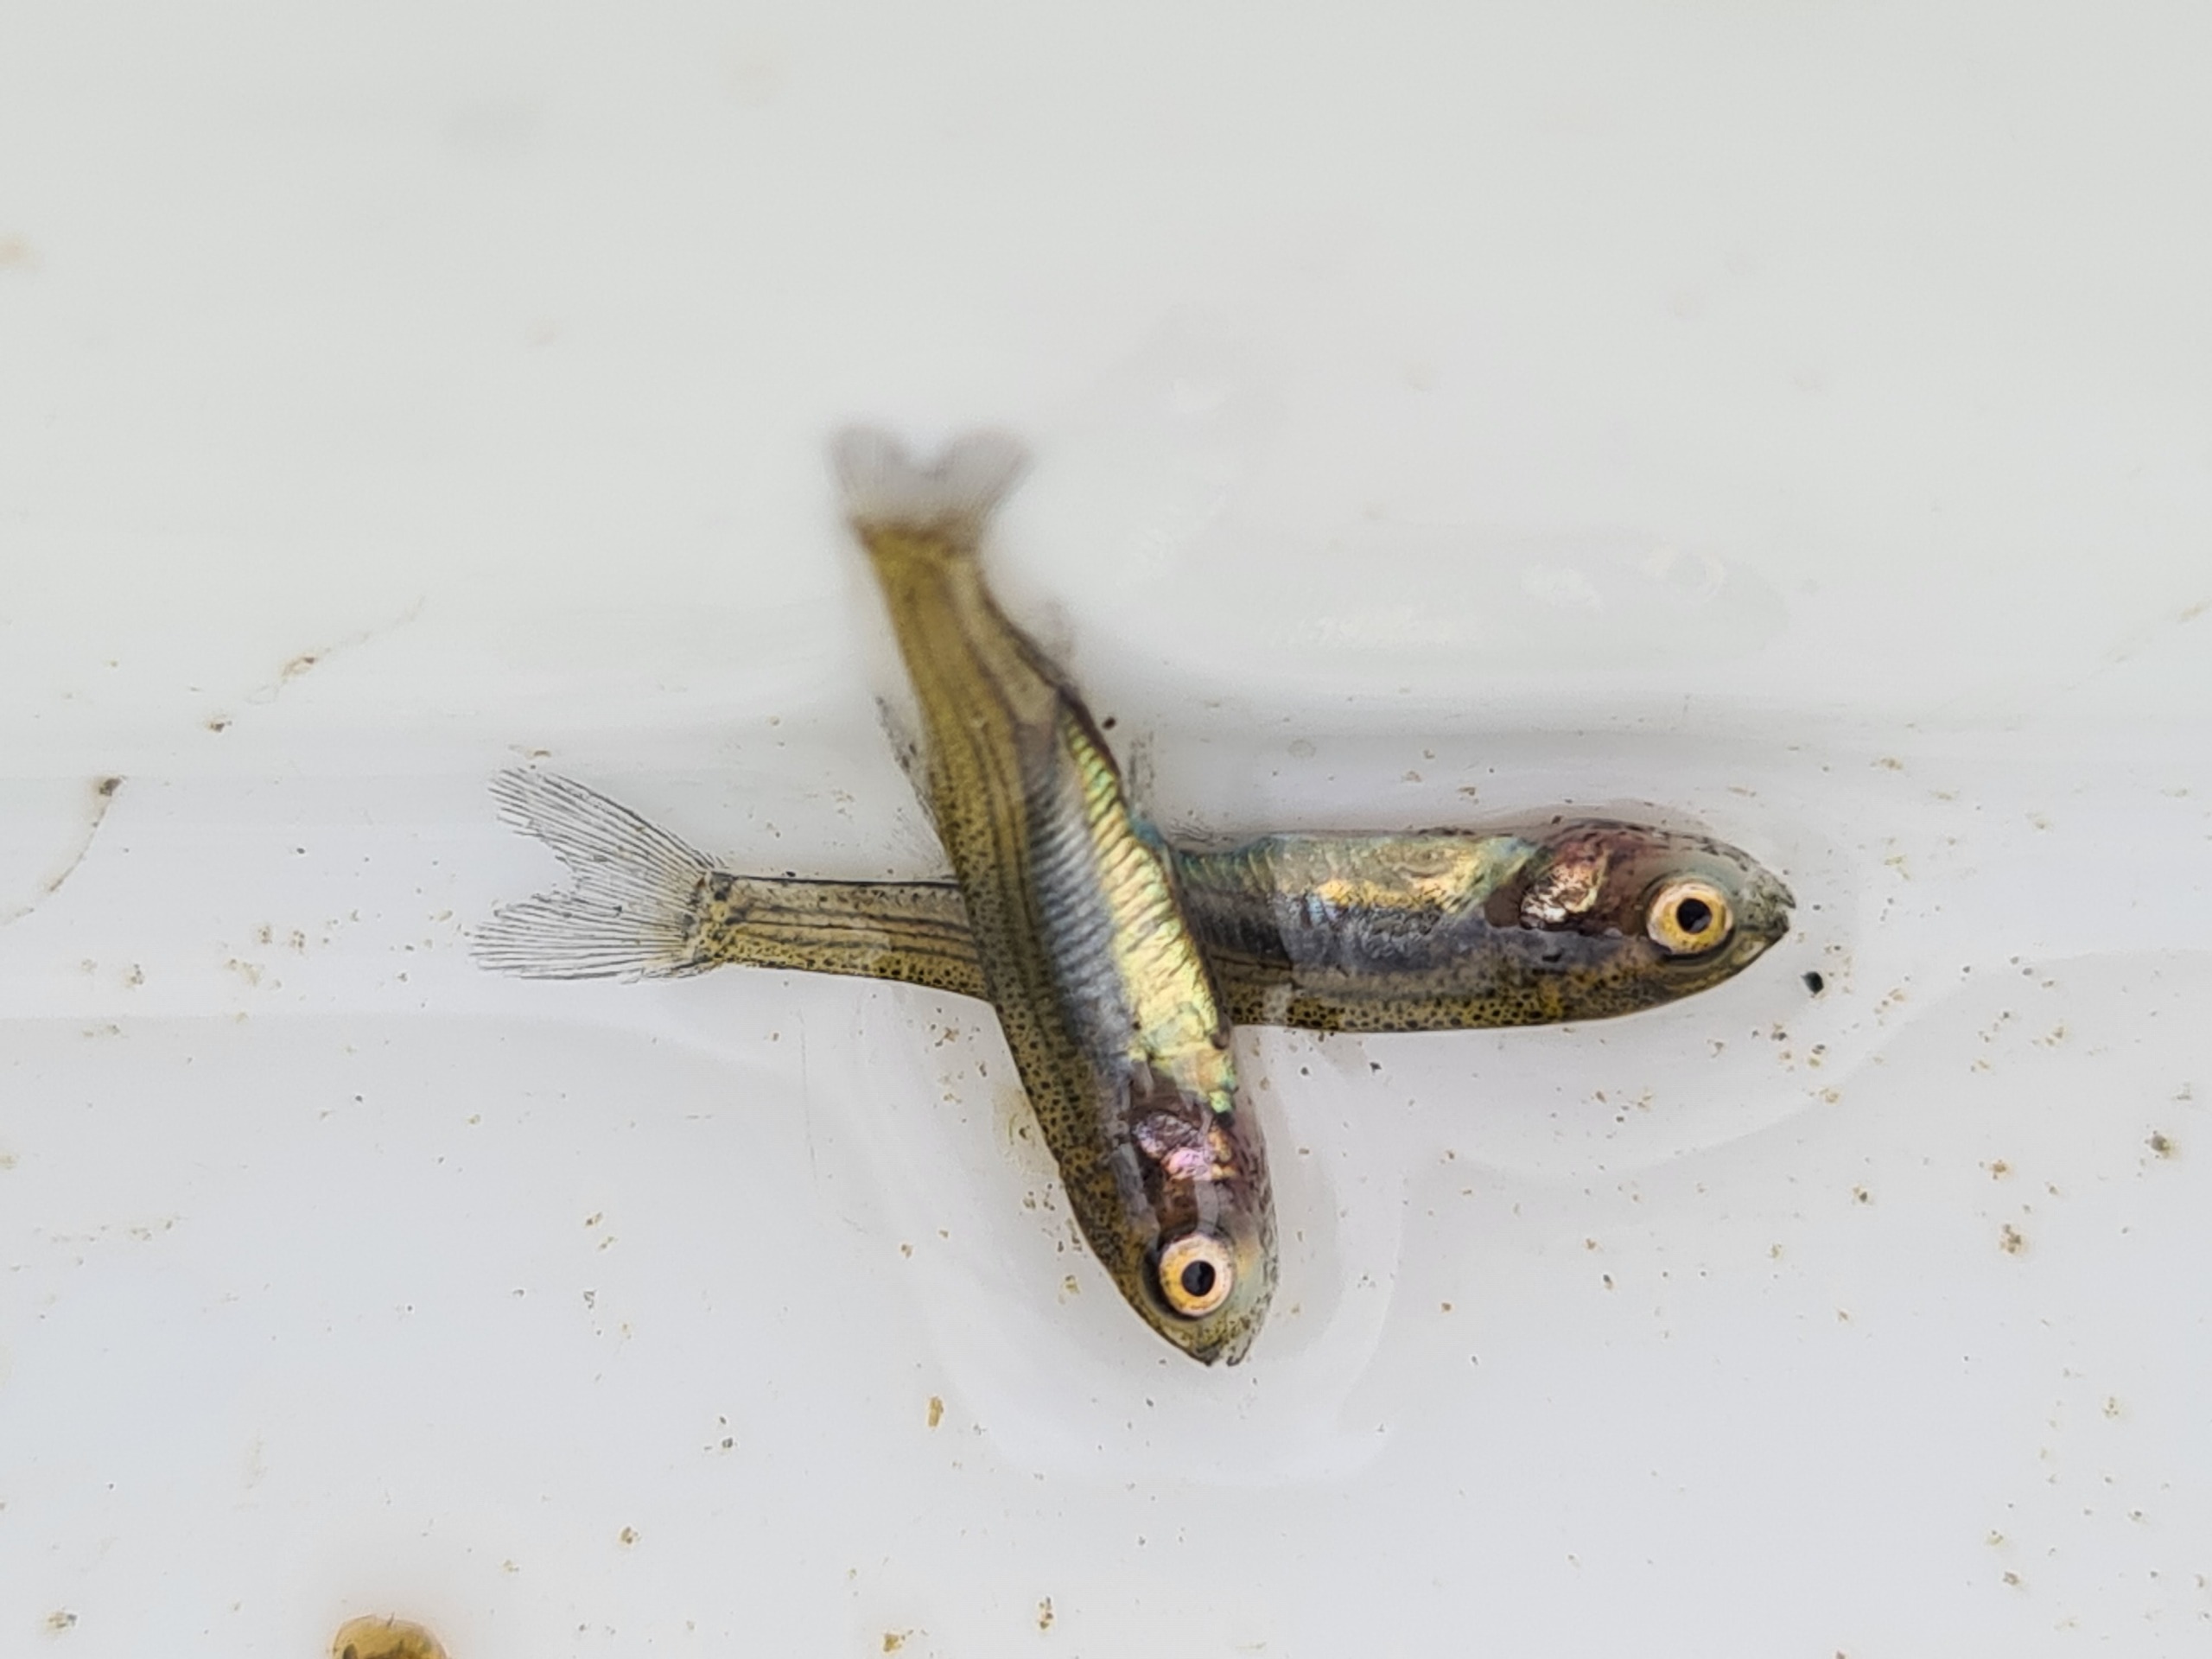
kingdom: Animalia
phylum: Chordata
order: Cypriniformes
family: Cyprinidae
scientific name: Cyprinidae
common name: Karpefamilien
